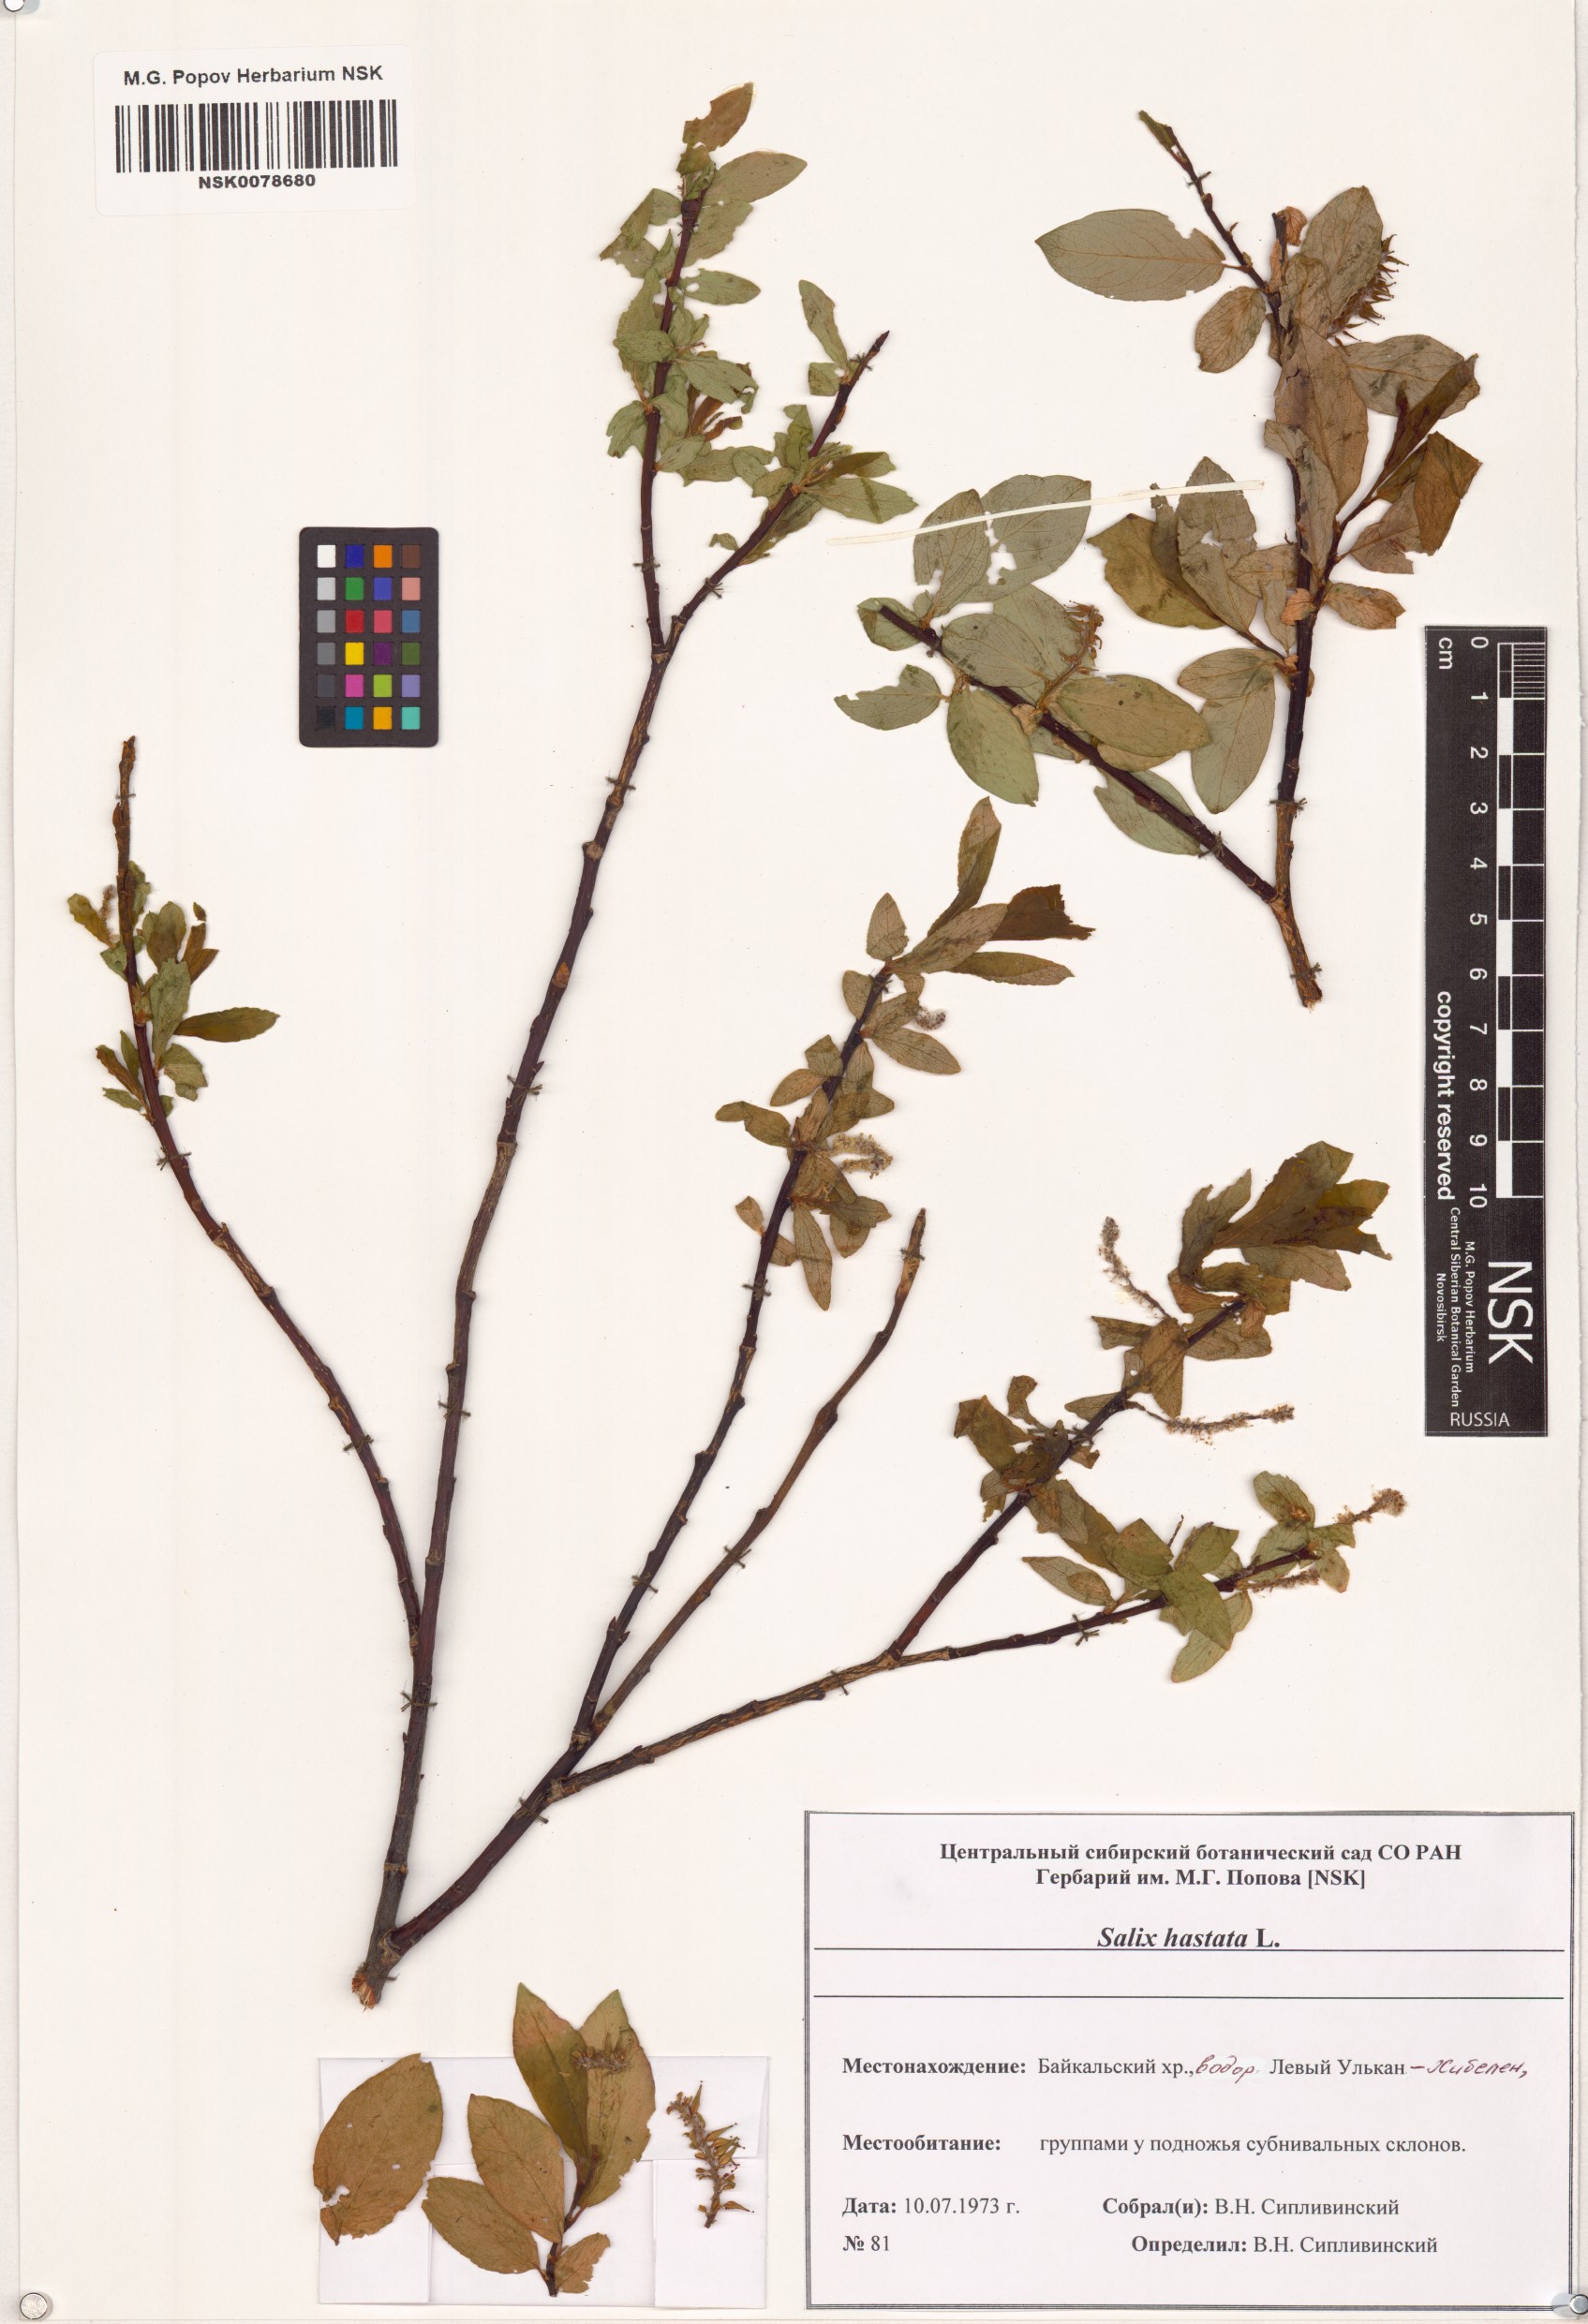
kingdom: Plantae
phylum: Tracheophyta
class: Magnoliopsida
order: Malpighiales
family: Salicaceae
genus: Salix
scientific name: Salix hastata
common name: Halberd willow
